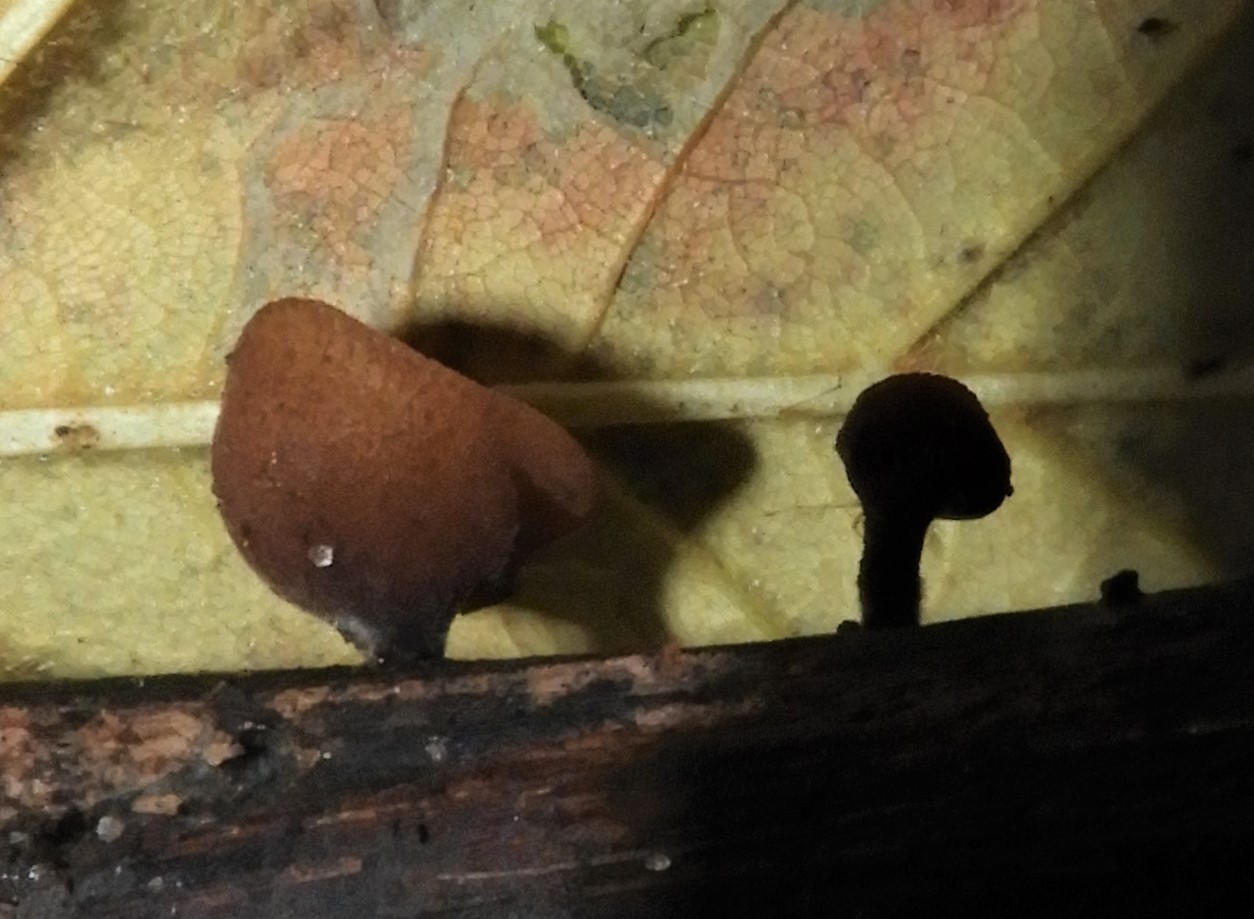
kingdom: Fungi
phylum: Ascomycota
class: Leotiomycetes
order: Helotiales
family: Rutstroemiaceae
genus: Rutstroemia
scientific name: Rutstroemia firma
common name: gren-brunskive
